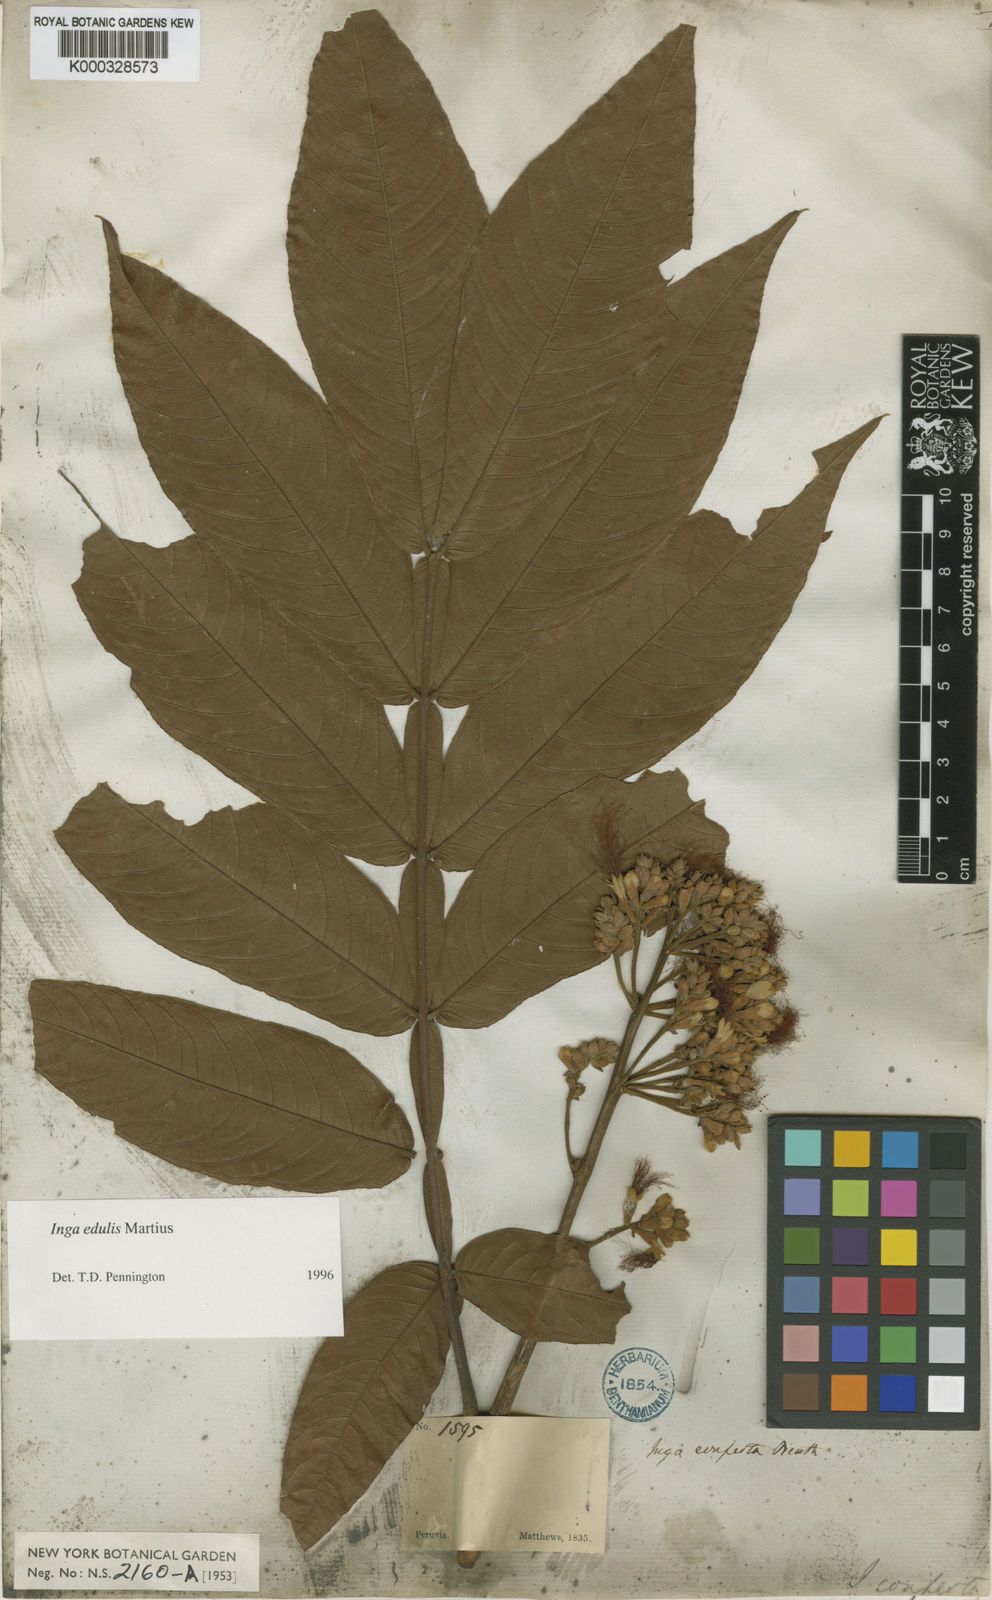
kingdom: Plantae
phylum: Tracheophyta
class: Magnoliopsida
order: Fabales
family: Fabaceae
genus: Inga
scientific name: Inga edulis
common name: Ice cream bean
